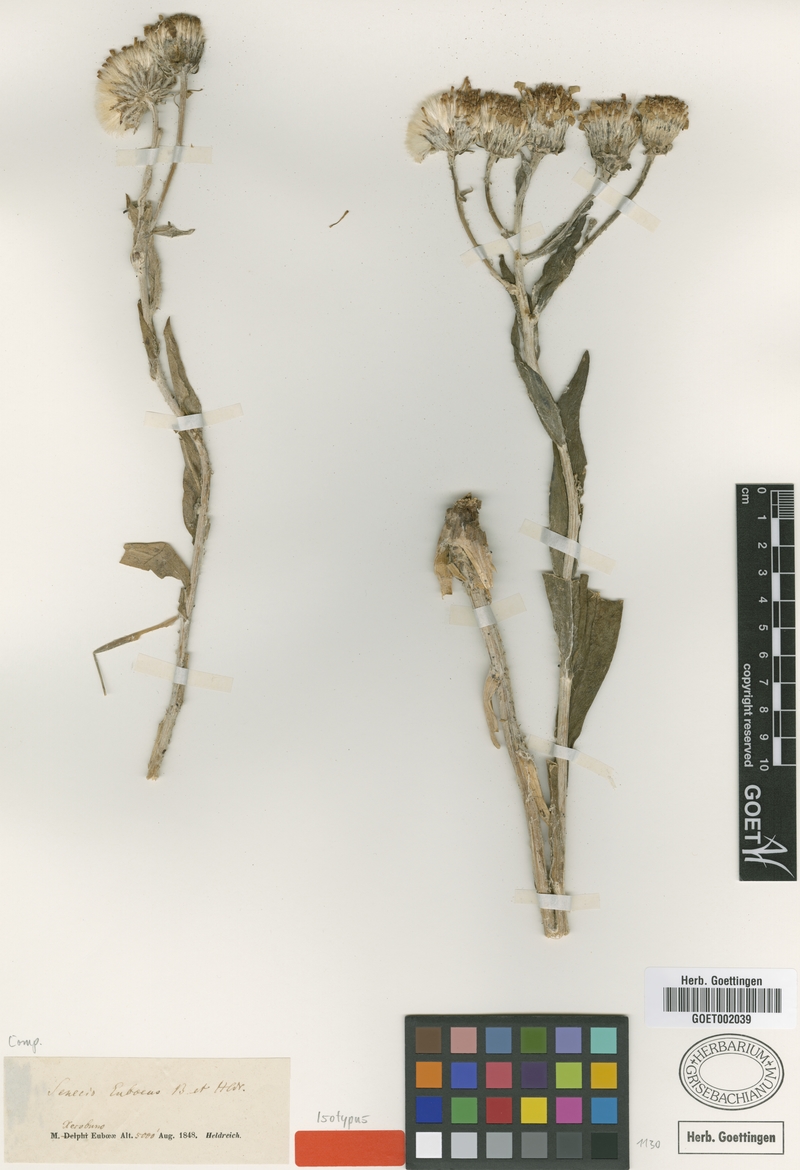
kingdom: Plantae
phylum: Tracheophyta
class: Magnoliopsida
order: Asterales
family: Asteraceae
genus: Senecio
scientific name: Senecio eubaeus
